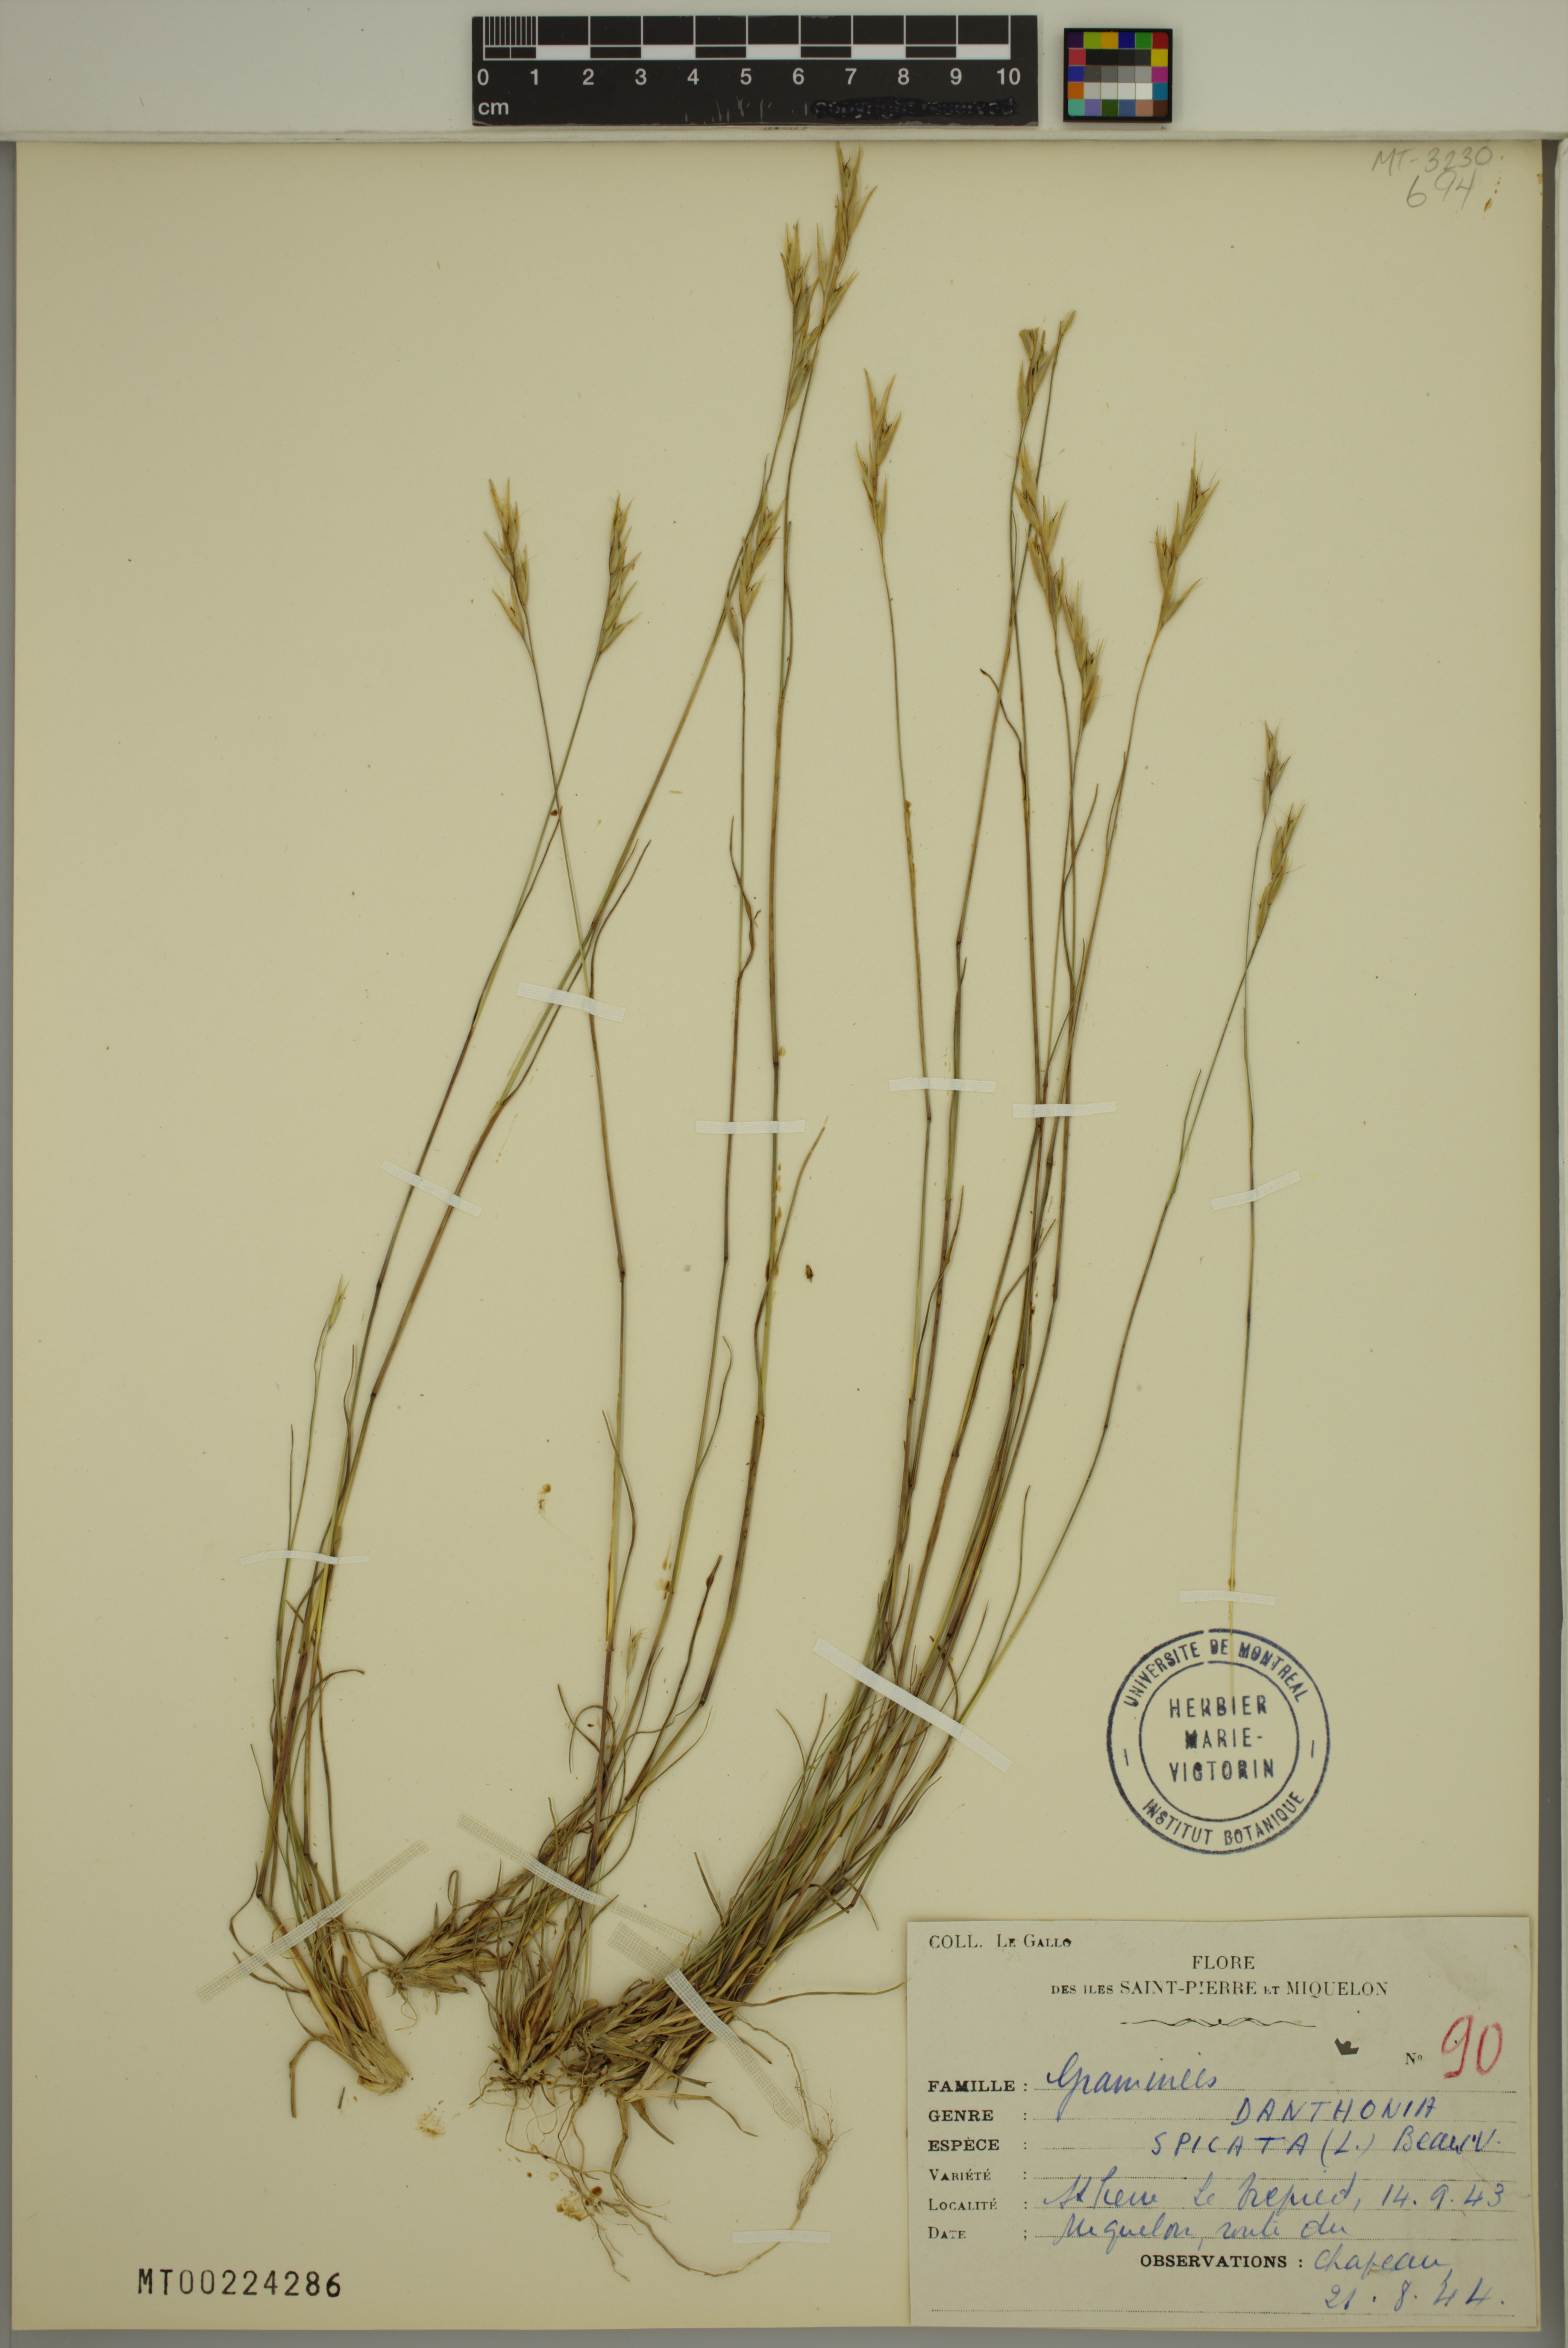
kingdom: Plantae
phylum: Tracheophyta
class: Liliopsida
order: Poales
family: Poaceae
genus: Danthonia
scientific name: Danthonia spicata
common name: Common wild oatgrass
